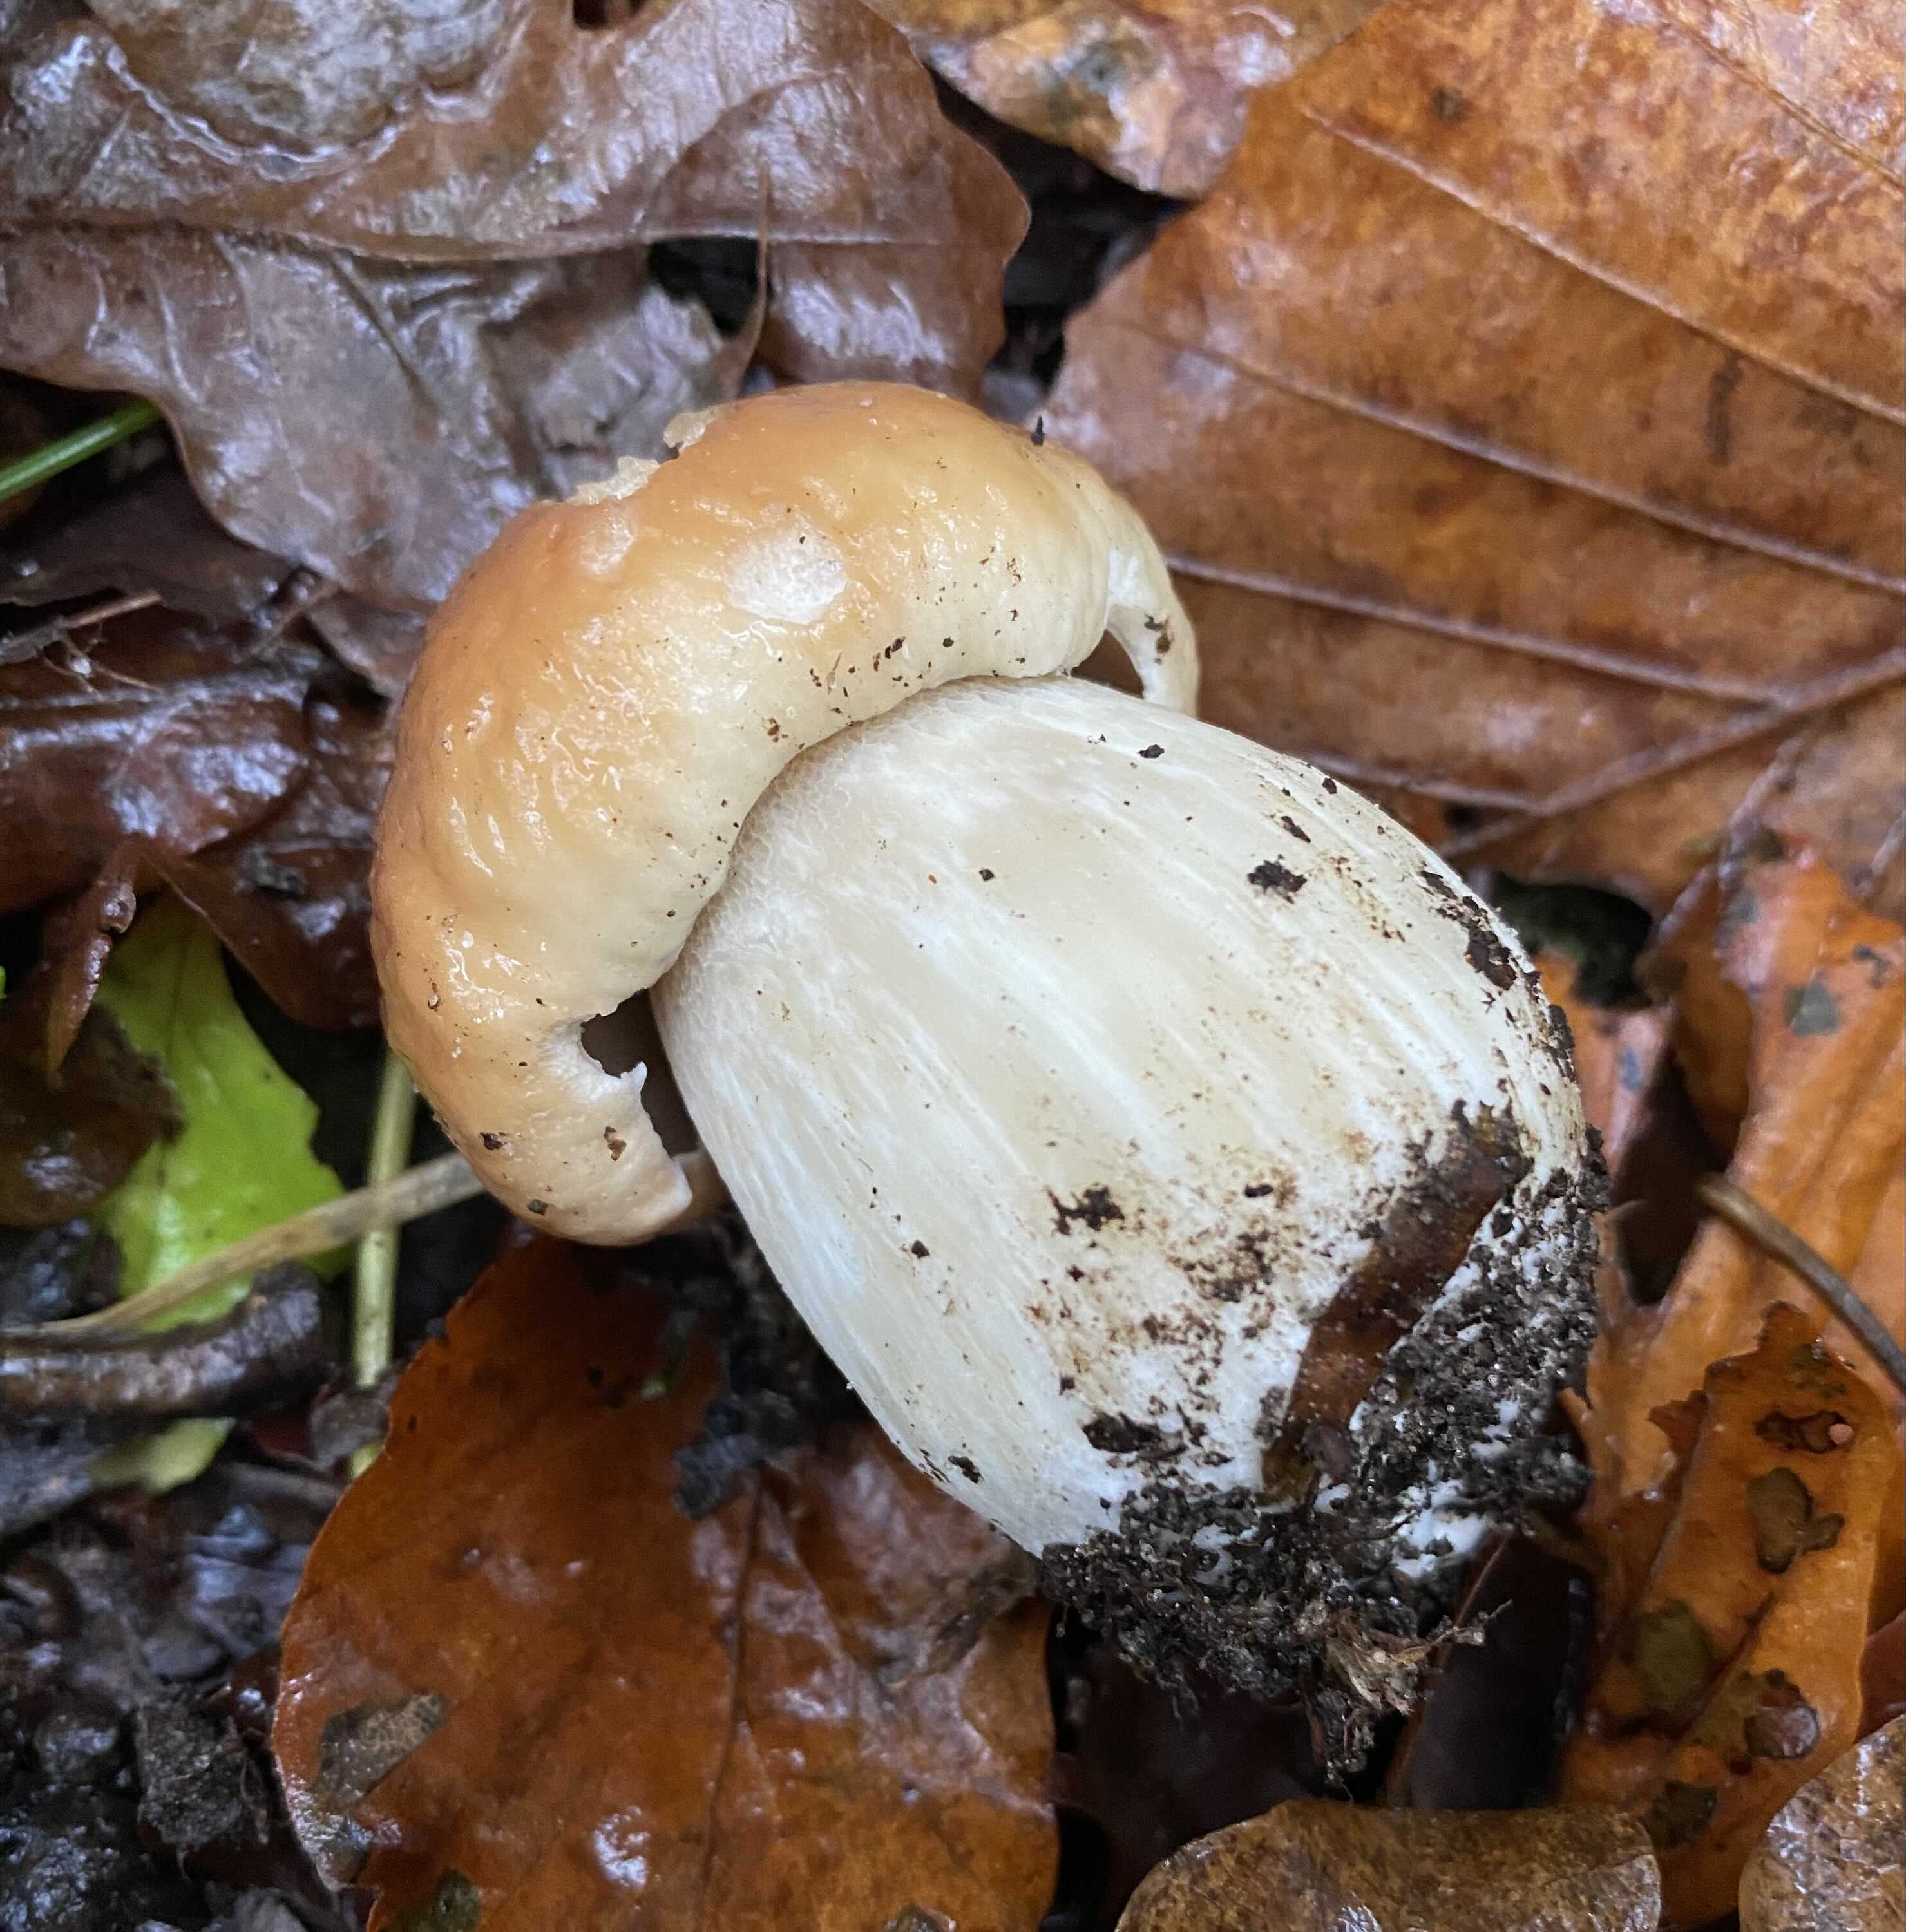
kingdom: Fungi
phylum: Basidiomycota
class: Agaricomycetes
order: Boletales
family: Boletaceae
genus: Boletus
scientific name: Boletus edulis
